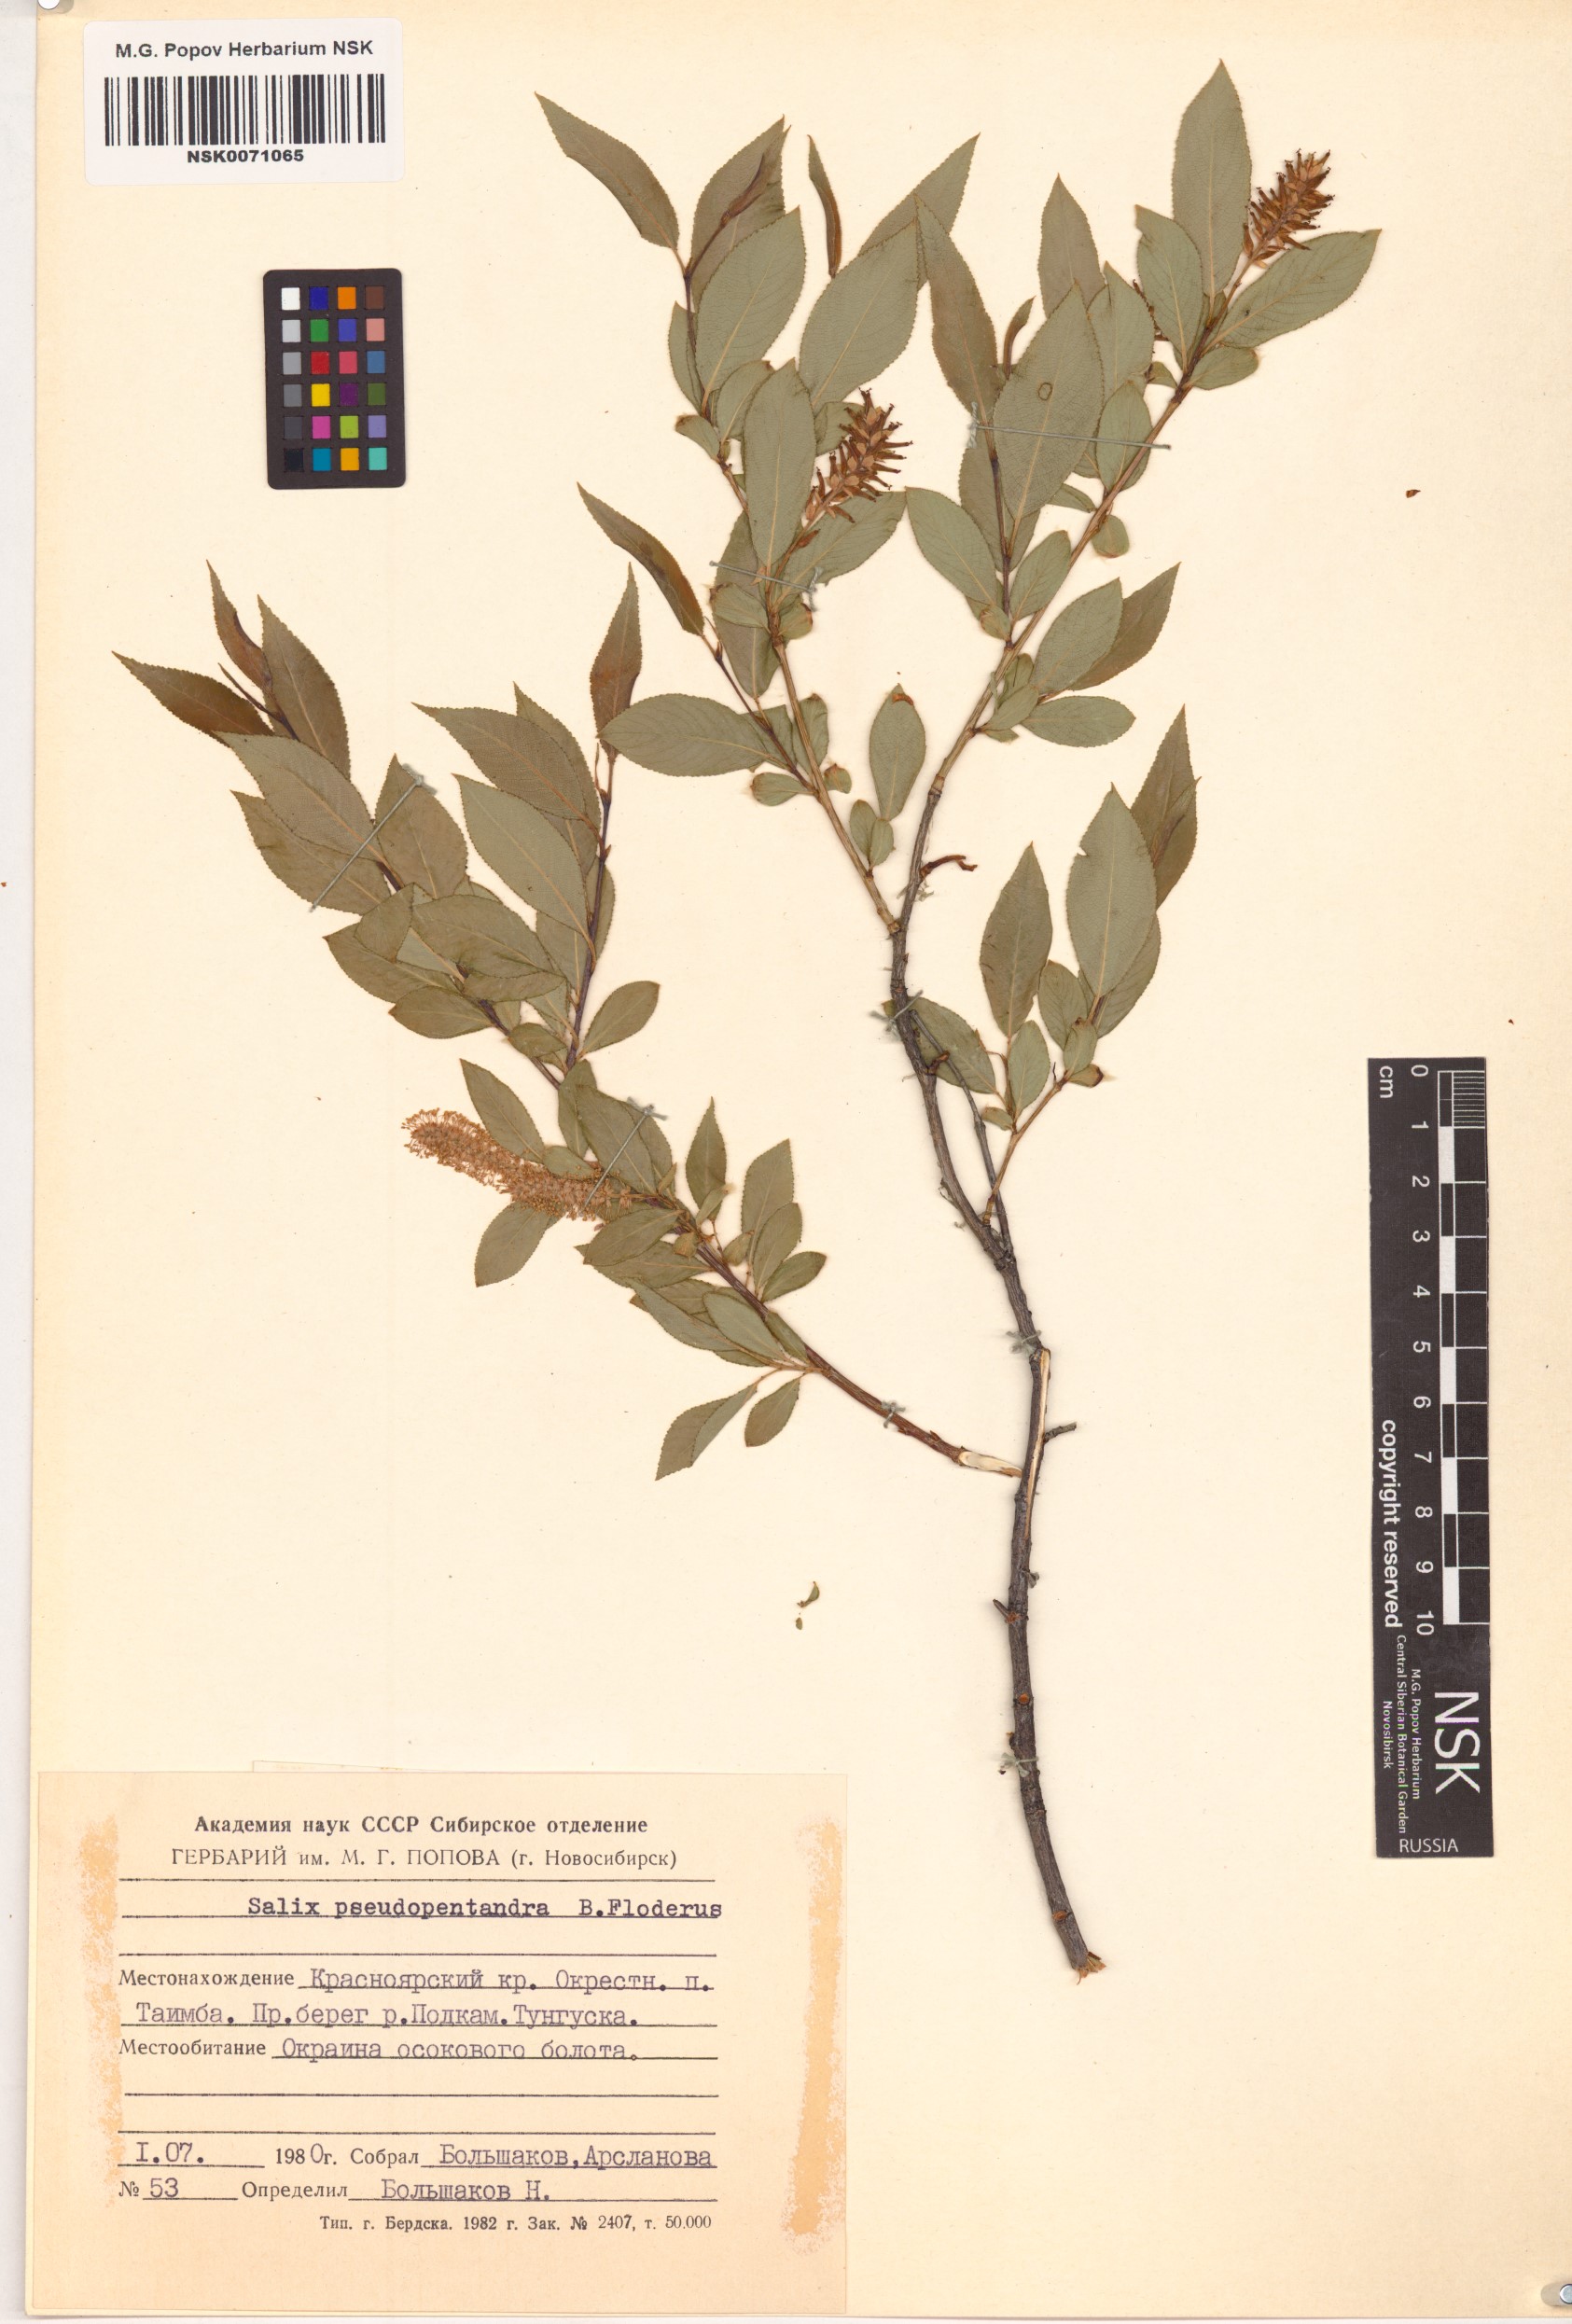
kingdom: Plantae
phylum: Tracheophyta
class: Magnoliopsida
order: Malpighiales
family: Salicaceae
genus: Salix
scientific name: Salix pseudopentandra
